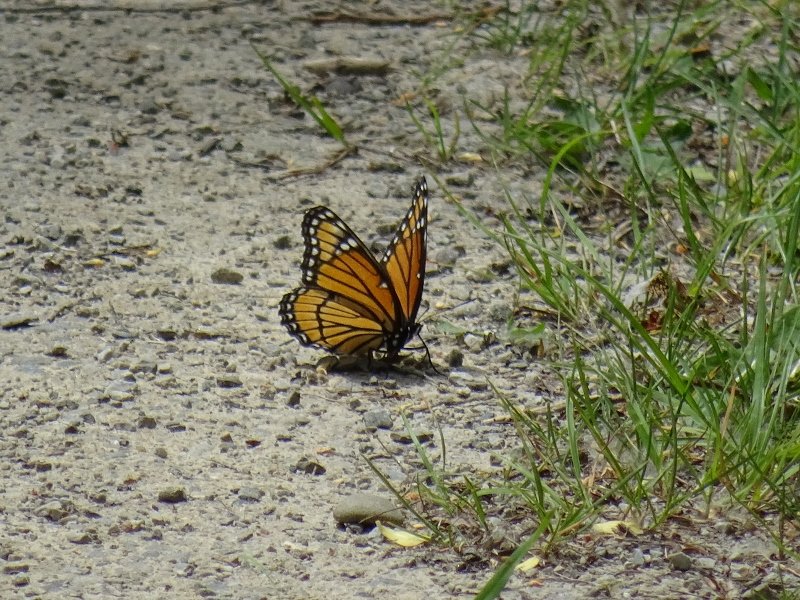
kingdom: Animalia
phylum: Arthropoda
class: Insecta
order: Lepidoptera
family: Nymphalidae
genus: Limenitis
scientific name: Limenitis archippus
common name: Viceroy
